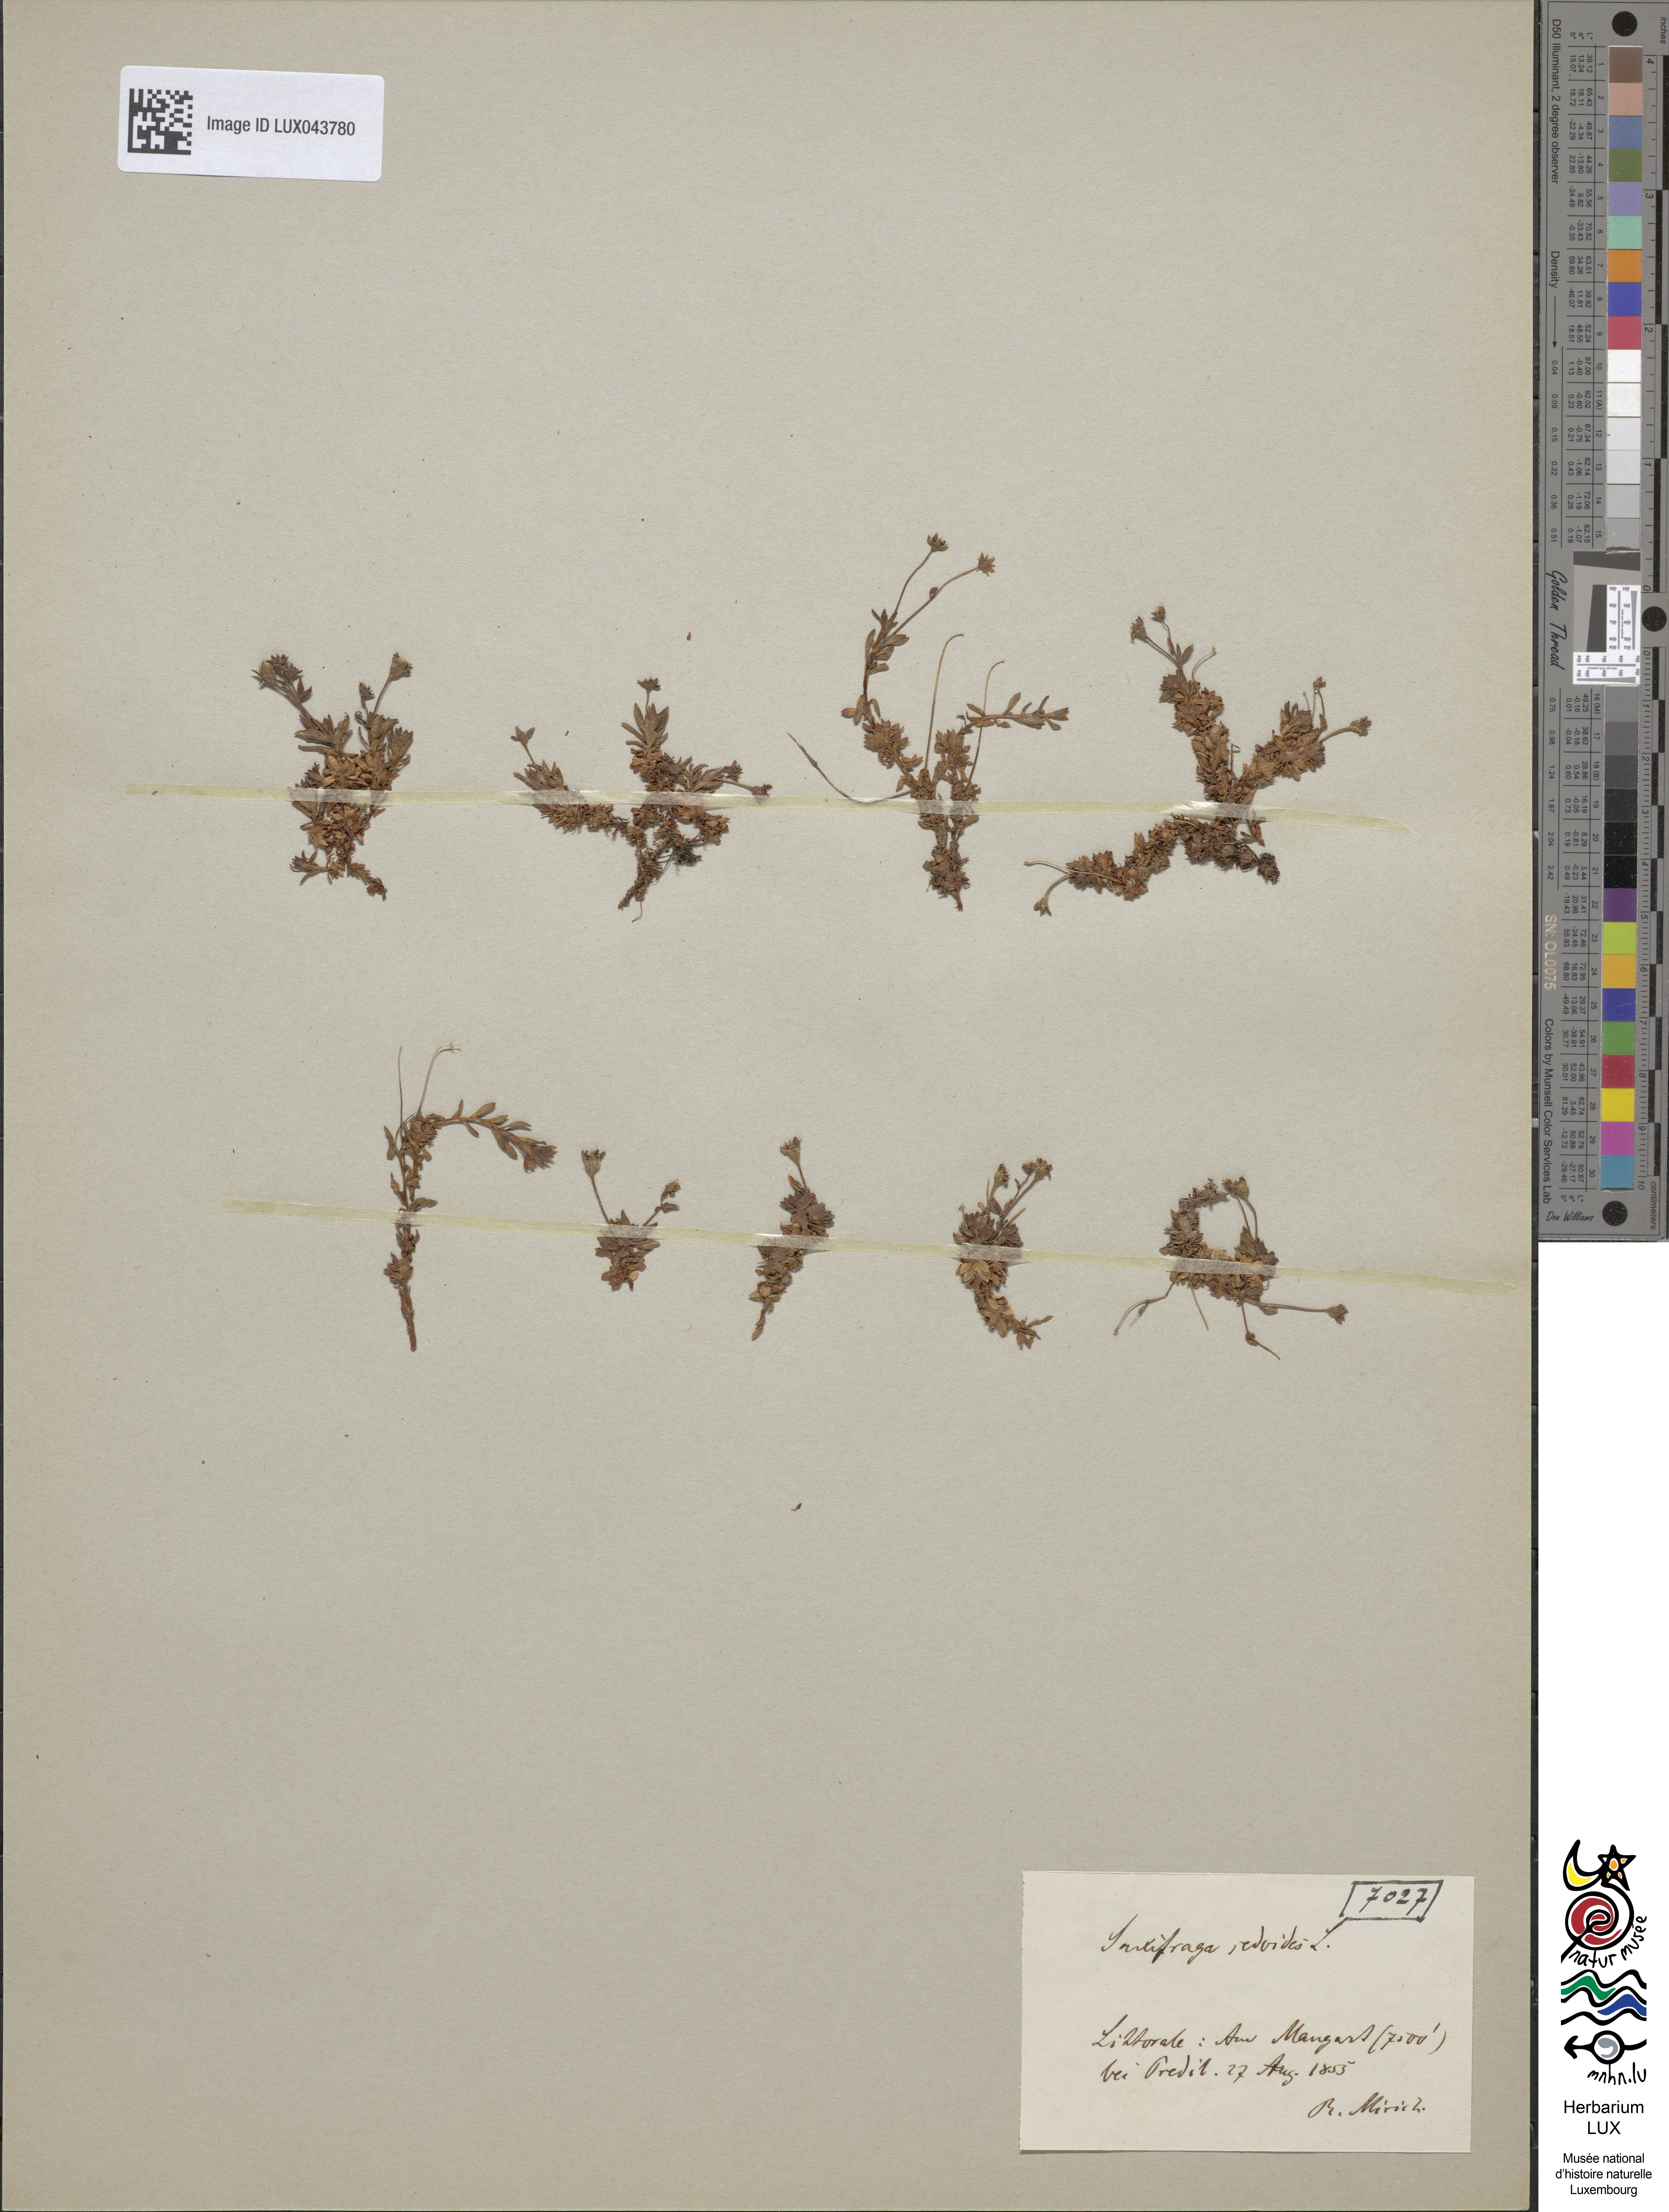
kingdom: Plantae
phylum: Tracheophyta
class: Magnoliopsida
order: Saxifragales
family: Saxifragaceae
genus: Saxifraga
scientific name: Saxifraga sedoides
